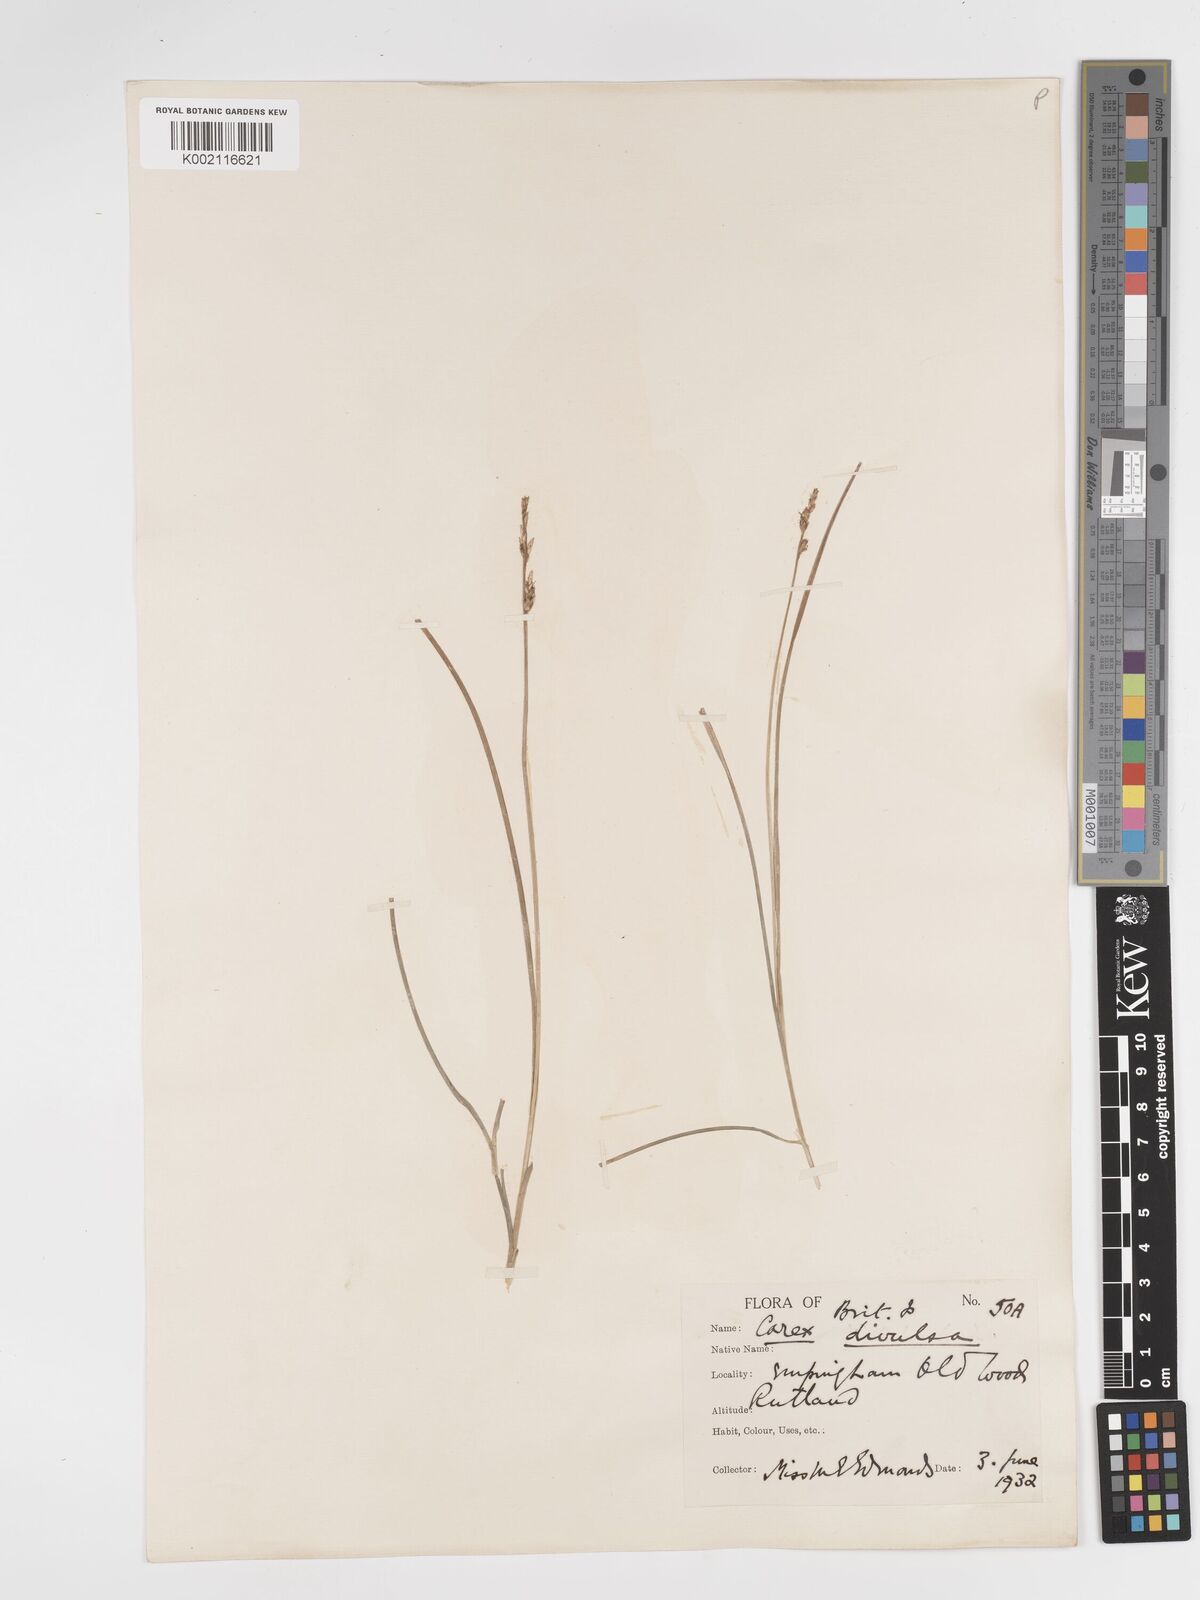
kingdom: Plantae
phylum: Tracheophyta
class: Liliopsida
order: Poales
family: Cyperaceae
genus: Carex
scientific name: Carex divulsa
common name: Grassland sedge
